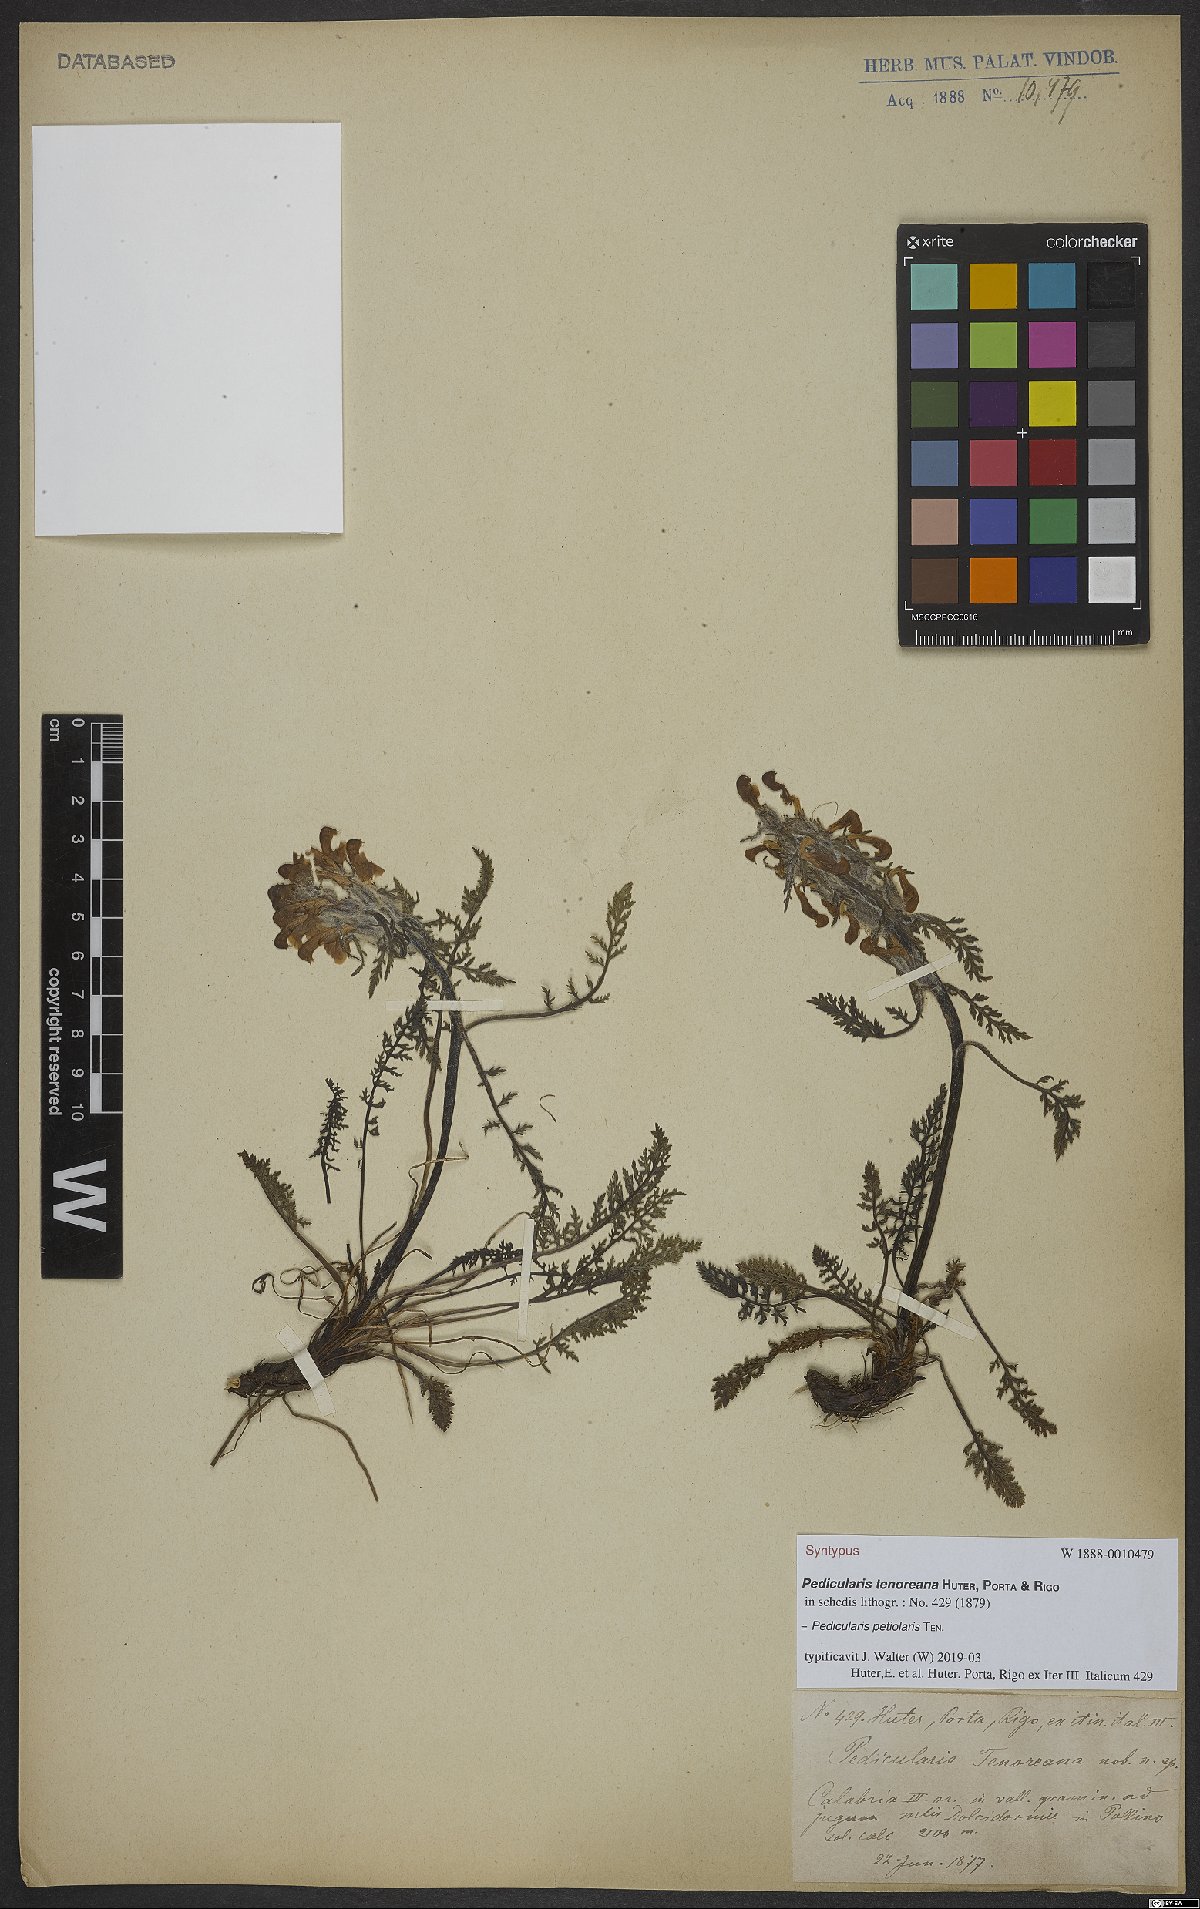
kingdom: Plantae
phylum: Tracheophyta
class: Magnoliopsida
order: Lamiales
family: Orobanchaceae
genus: Pedicularis
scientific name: Pedicularis petiolaris
